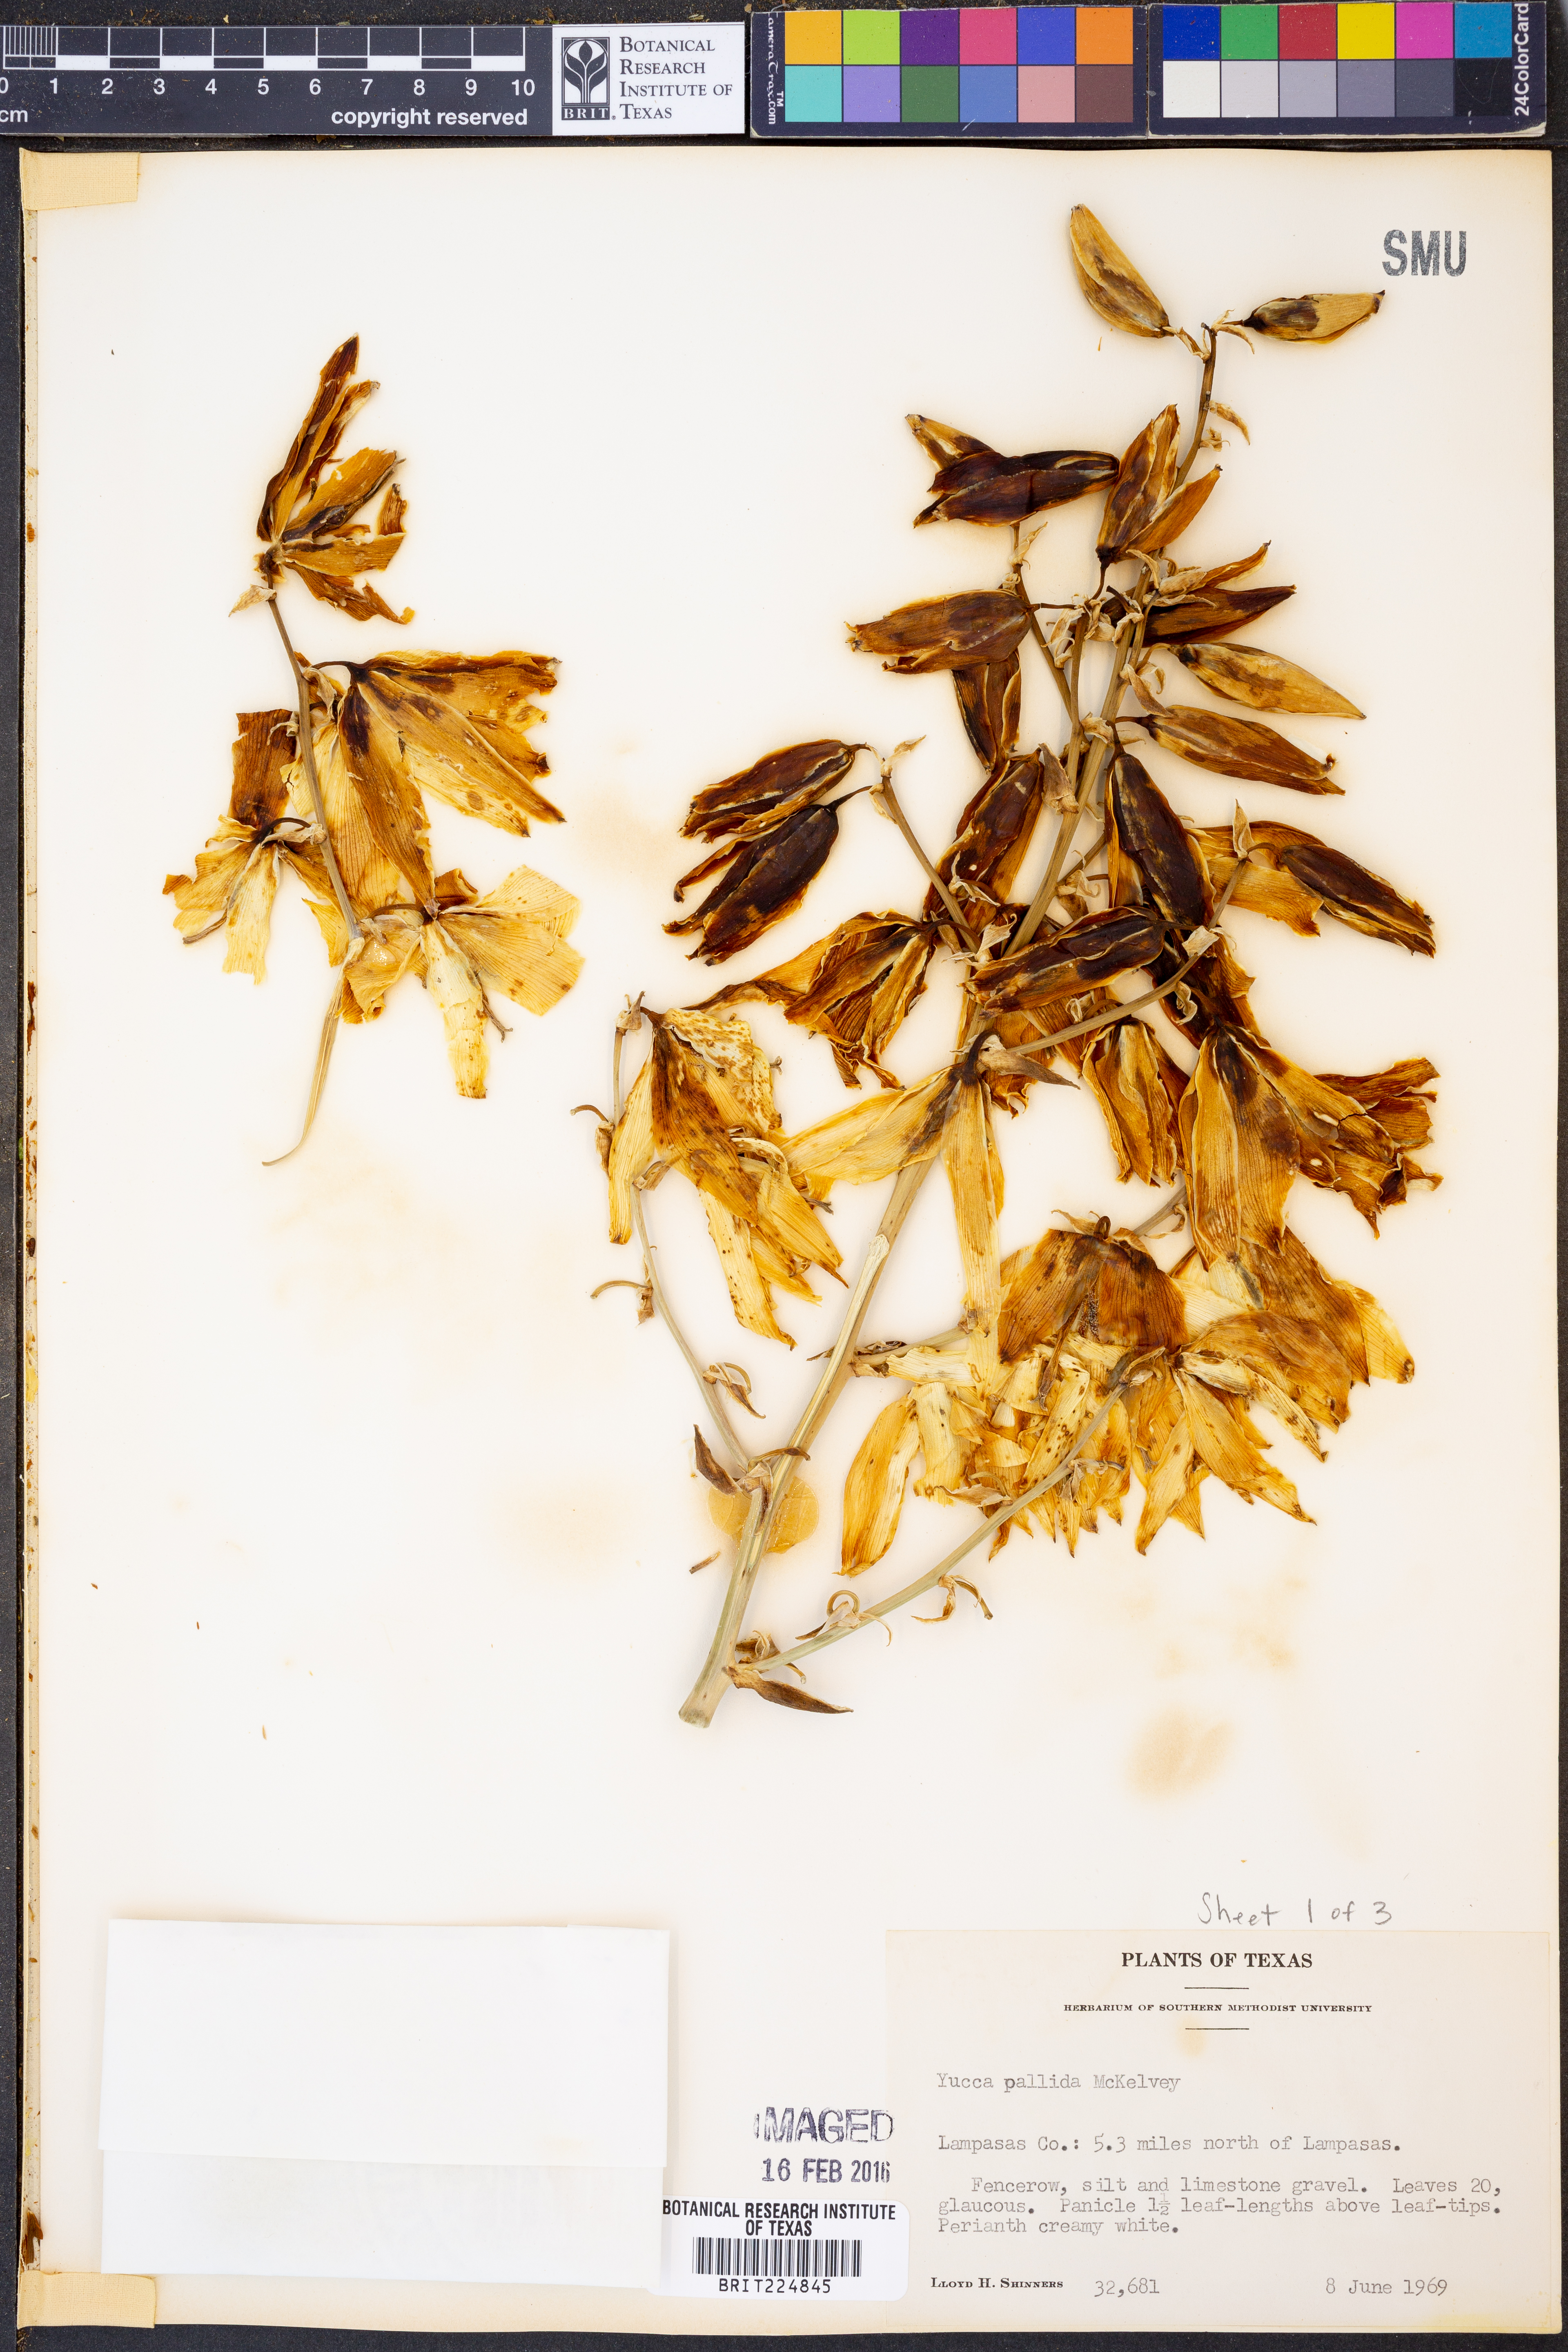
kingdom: Plantae
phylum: Tracheophyta
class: Liliopsida
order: Asparagales
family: Asparagaceae
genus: Yucca
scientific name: Yucca pallida
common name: Pale leaf yucca
